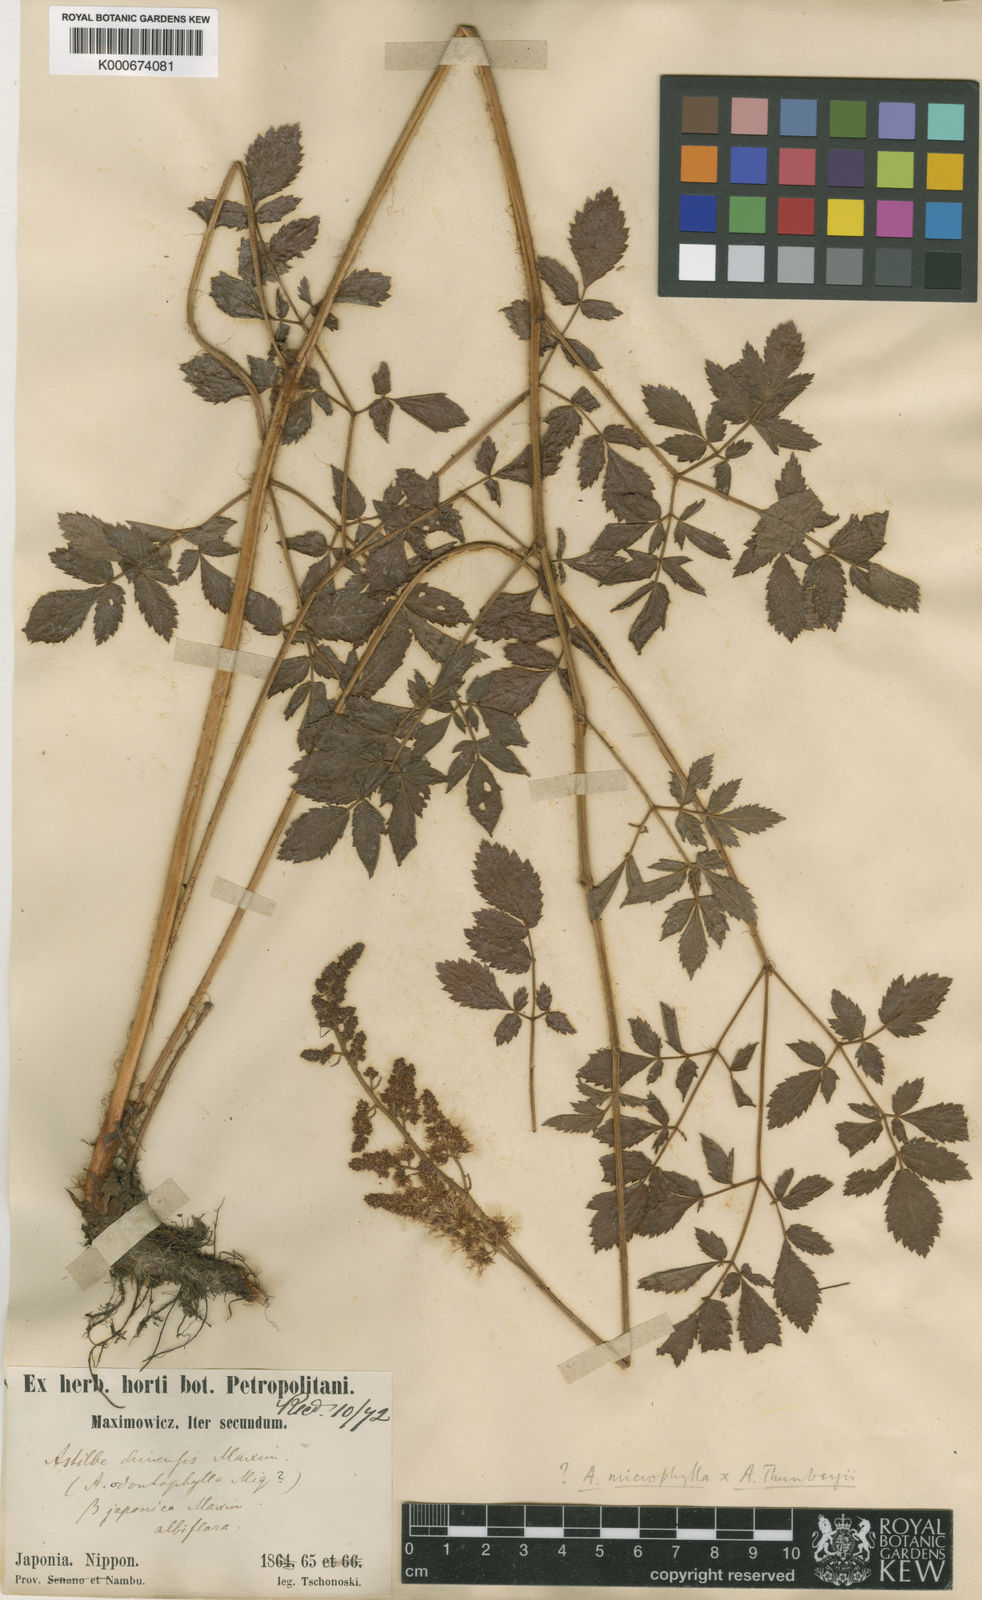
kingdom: Plantae
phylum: Tracheophyta
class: Magnoliopsida
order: Saxifragales
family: Saxifragaceae
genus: Astilbe
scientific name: Astilbe
